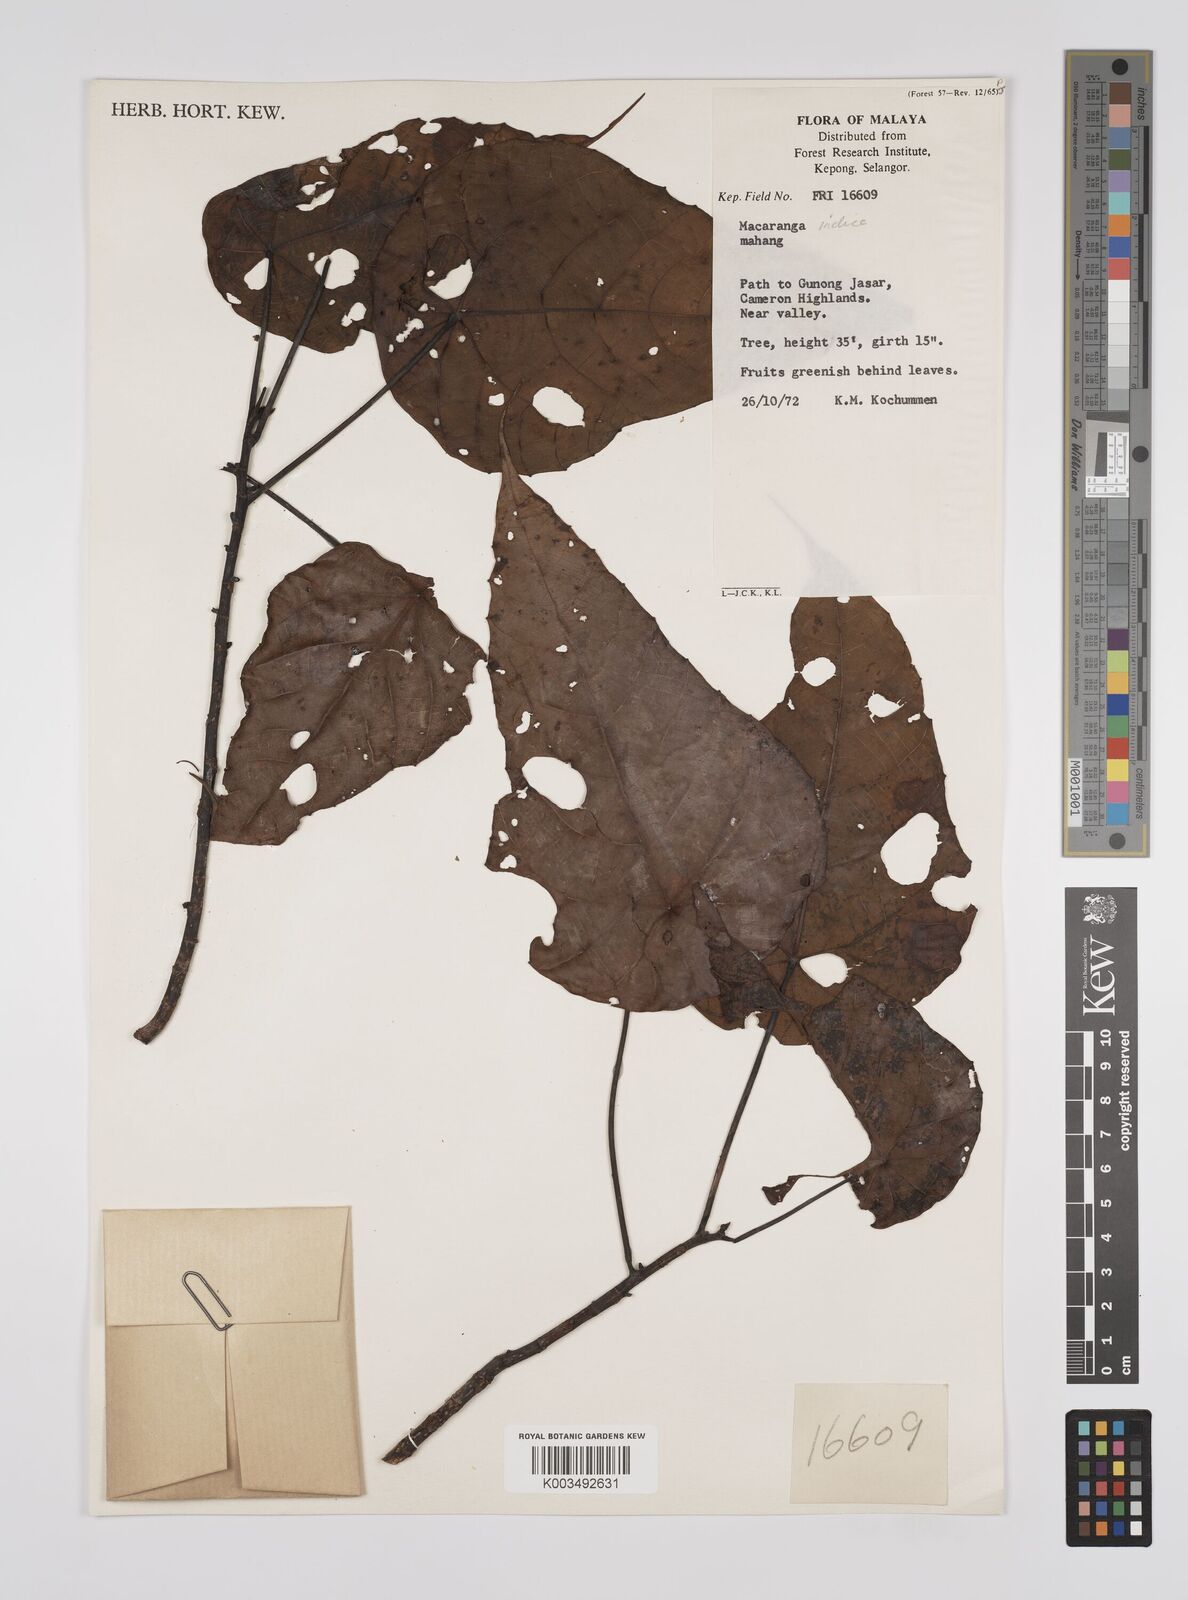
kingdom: Plantae
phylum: Tracheophyta
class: Magnoliopsida
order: Malpighiales
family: Euphorbiaceae
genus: Macaranga
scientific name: Macaranga indica
